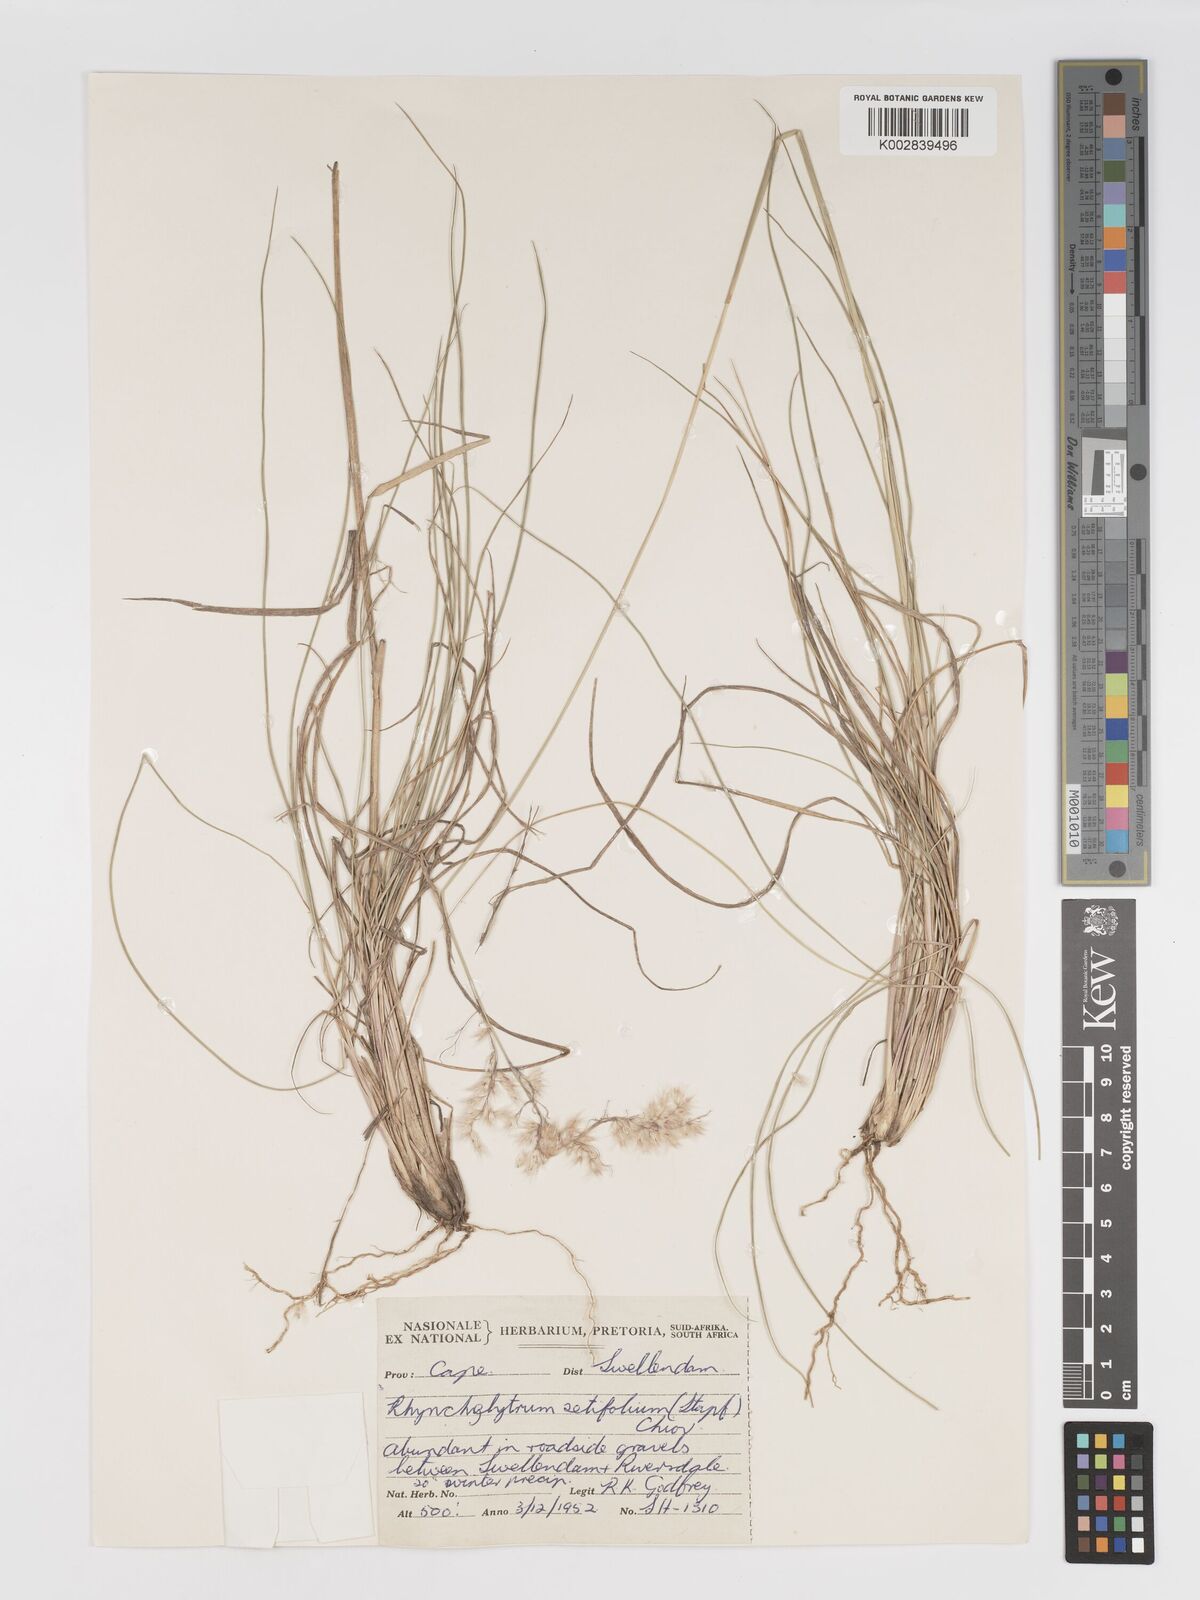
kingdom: Plantae
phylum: Tracheophyta
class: Liliopsida
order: Poales
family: Poaceae
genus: Melinis
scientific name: Melinis nerviglumis
